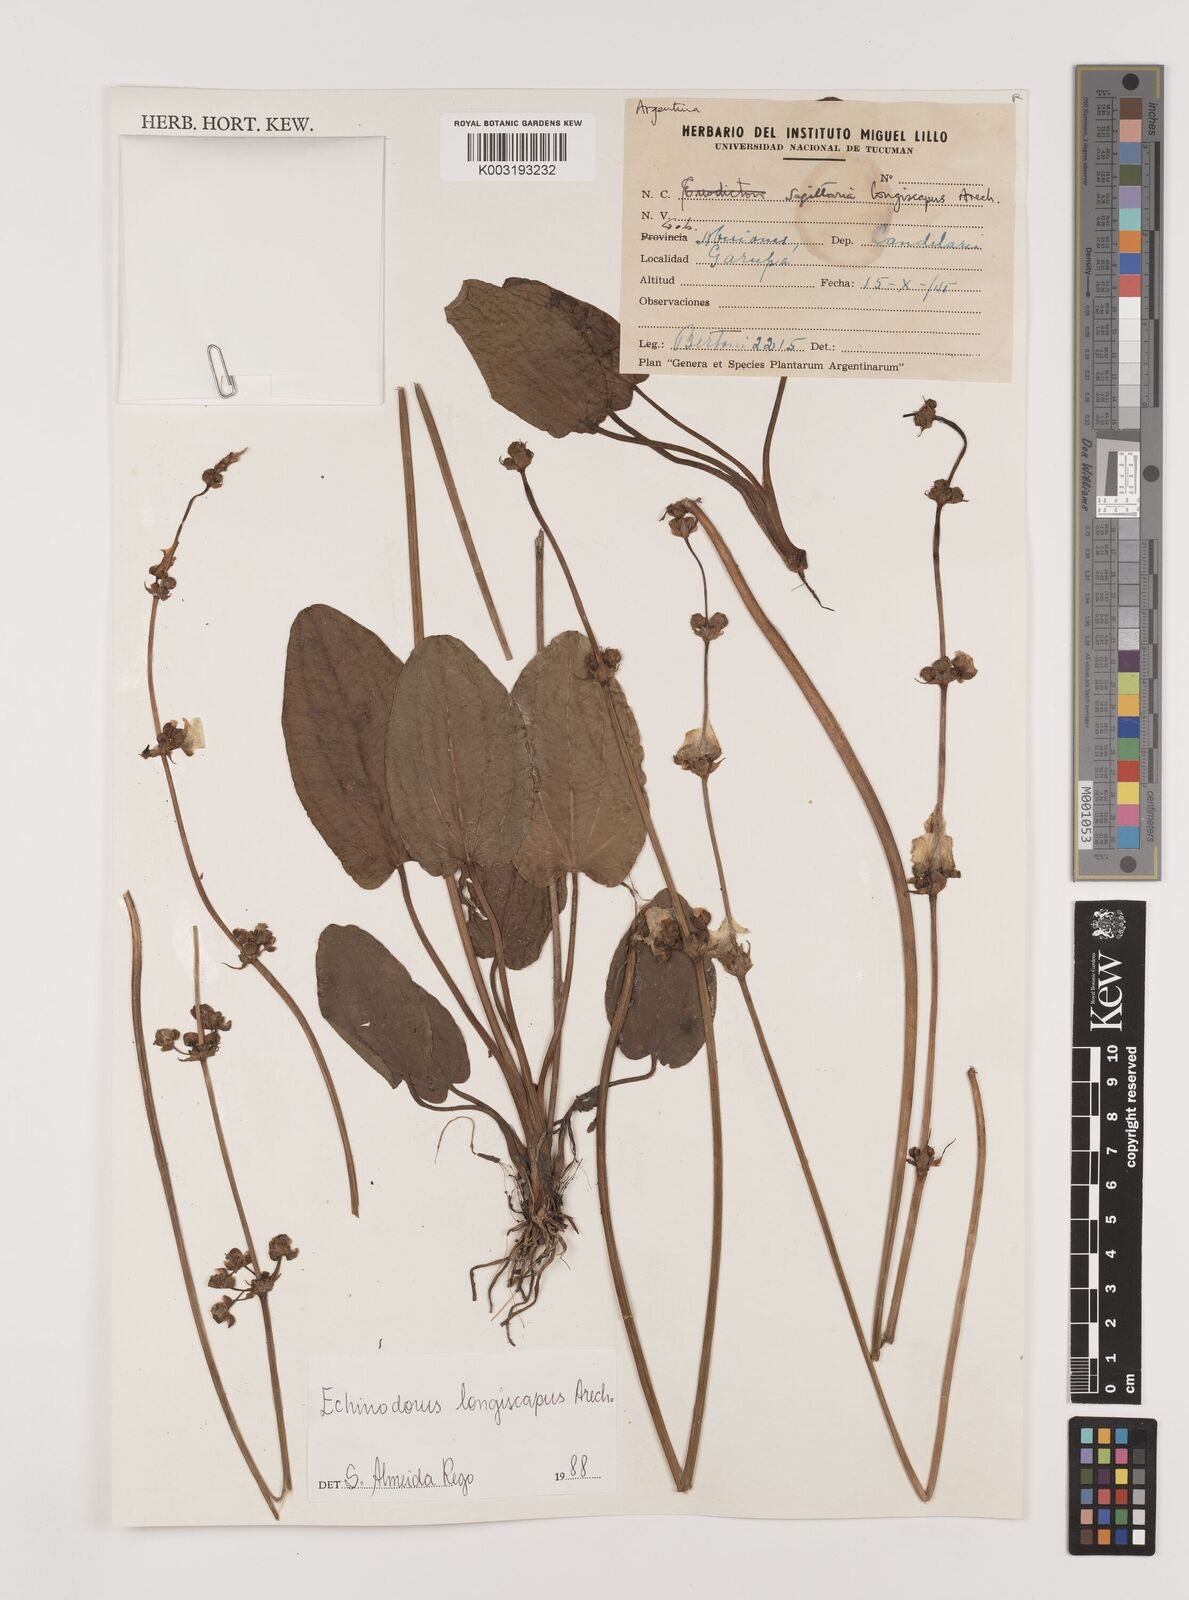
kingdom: Plantae
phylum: Tracheophyta
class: Liliopsida
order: Alismatales
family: Alismataceae
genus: Aquarius
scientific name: Aquarius longiscapus
